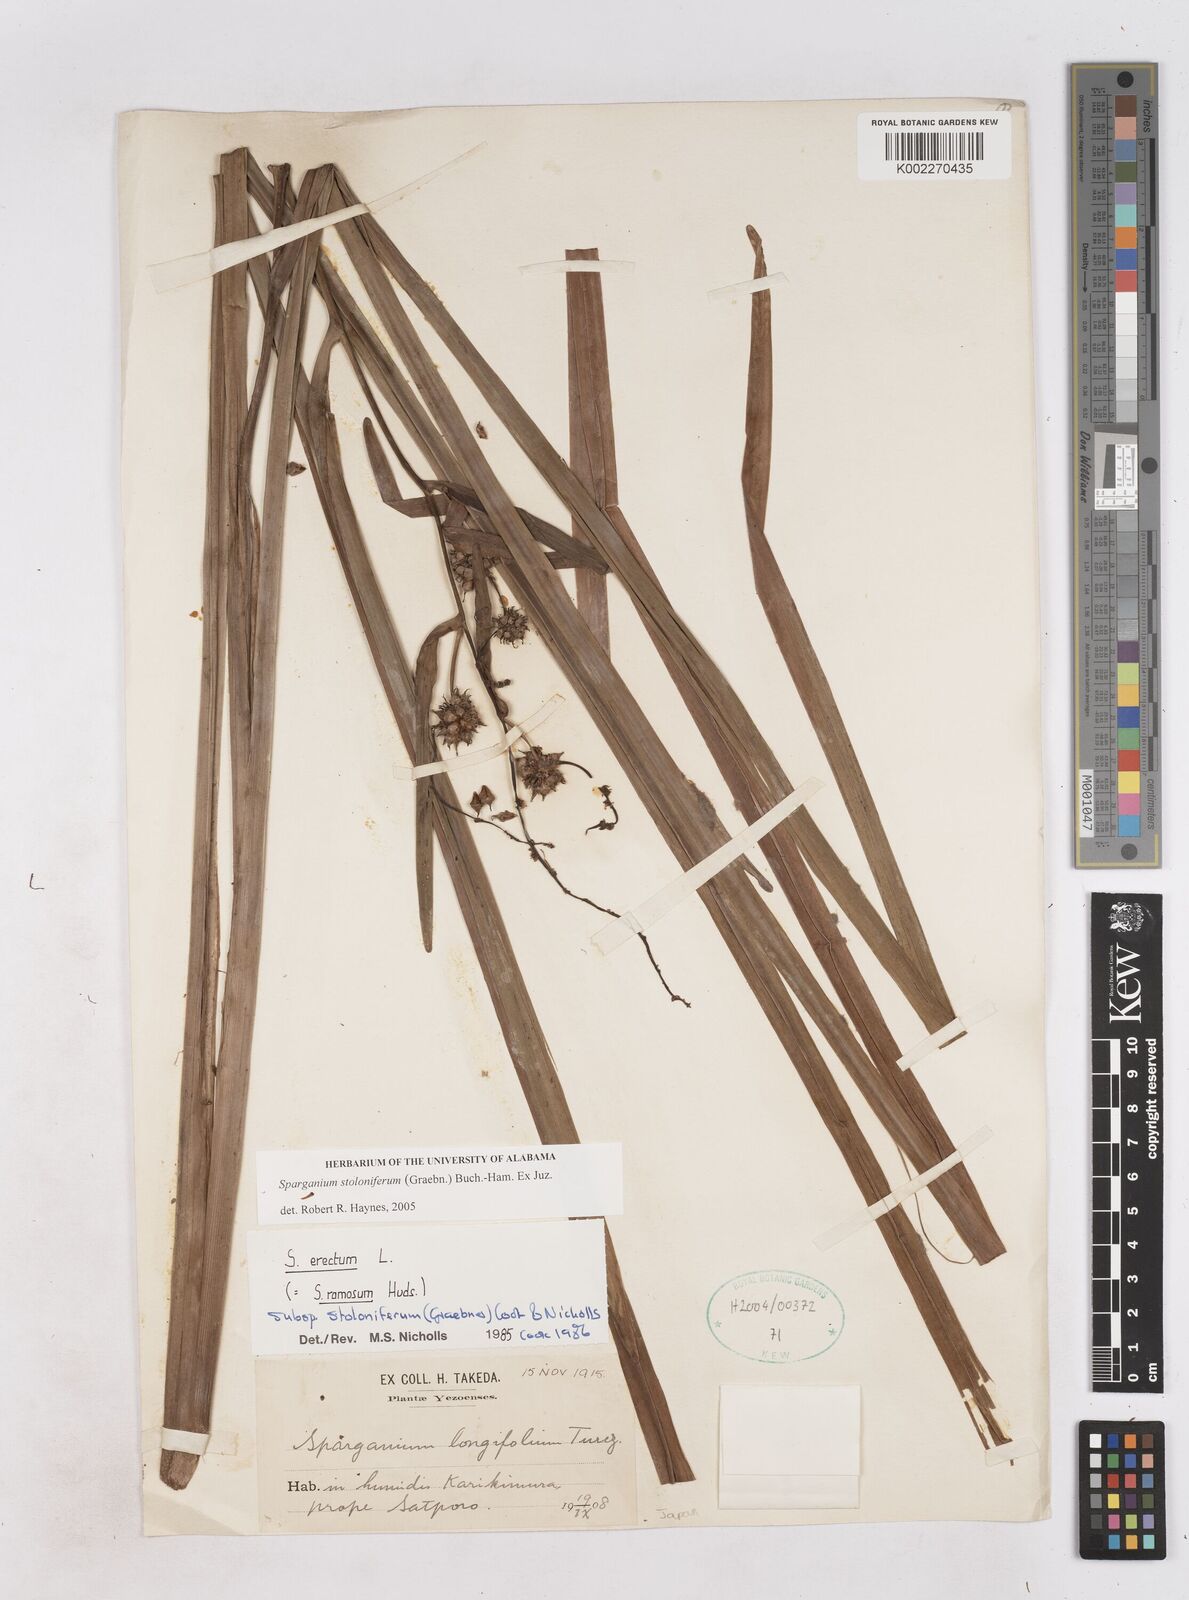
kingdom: Plantae
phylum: Tracheophyta
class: Liliopsida
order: Poales
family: Typhaceae
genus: Sparganium
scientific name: Sparganium stoloniferum
